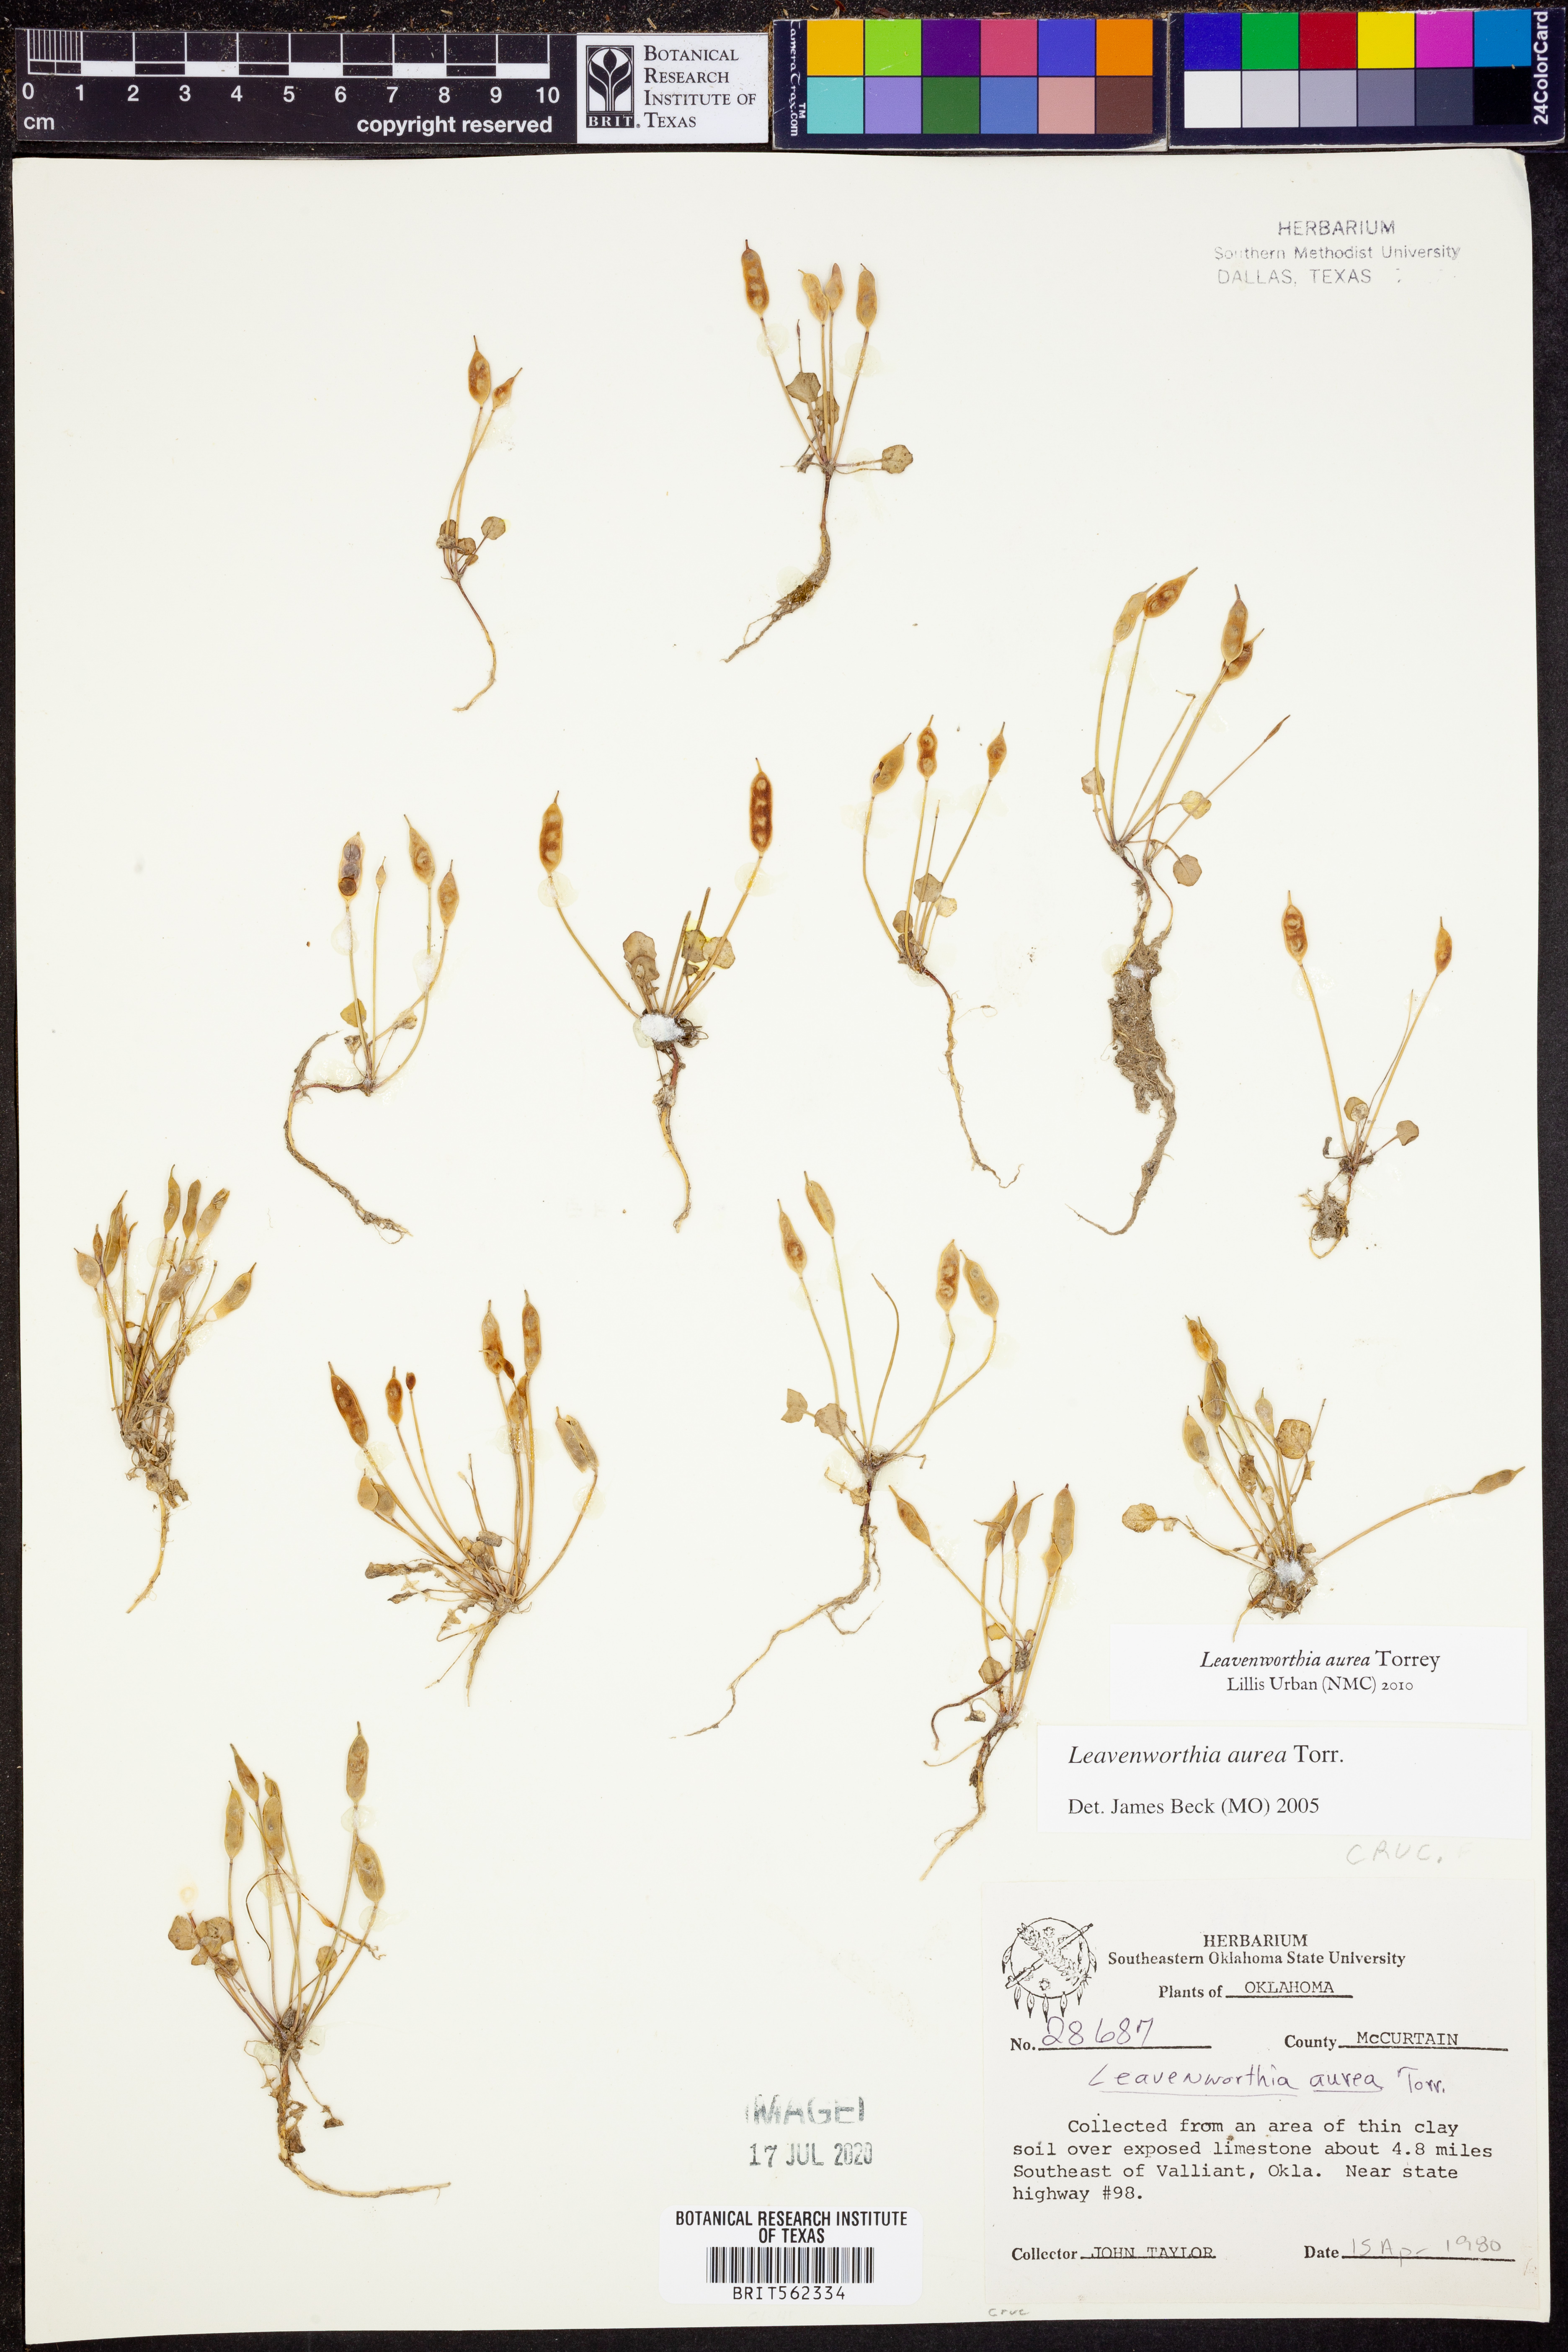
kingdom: Plantae
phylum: Tracheophyta
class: Magnoliopsida
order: Brassicales
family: Brassicaceae
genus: Leavenworthia
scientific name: Leavenworthia aurea
